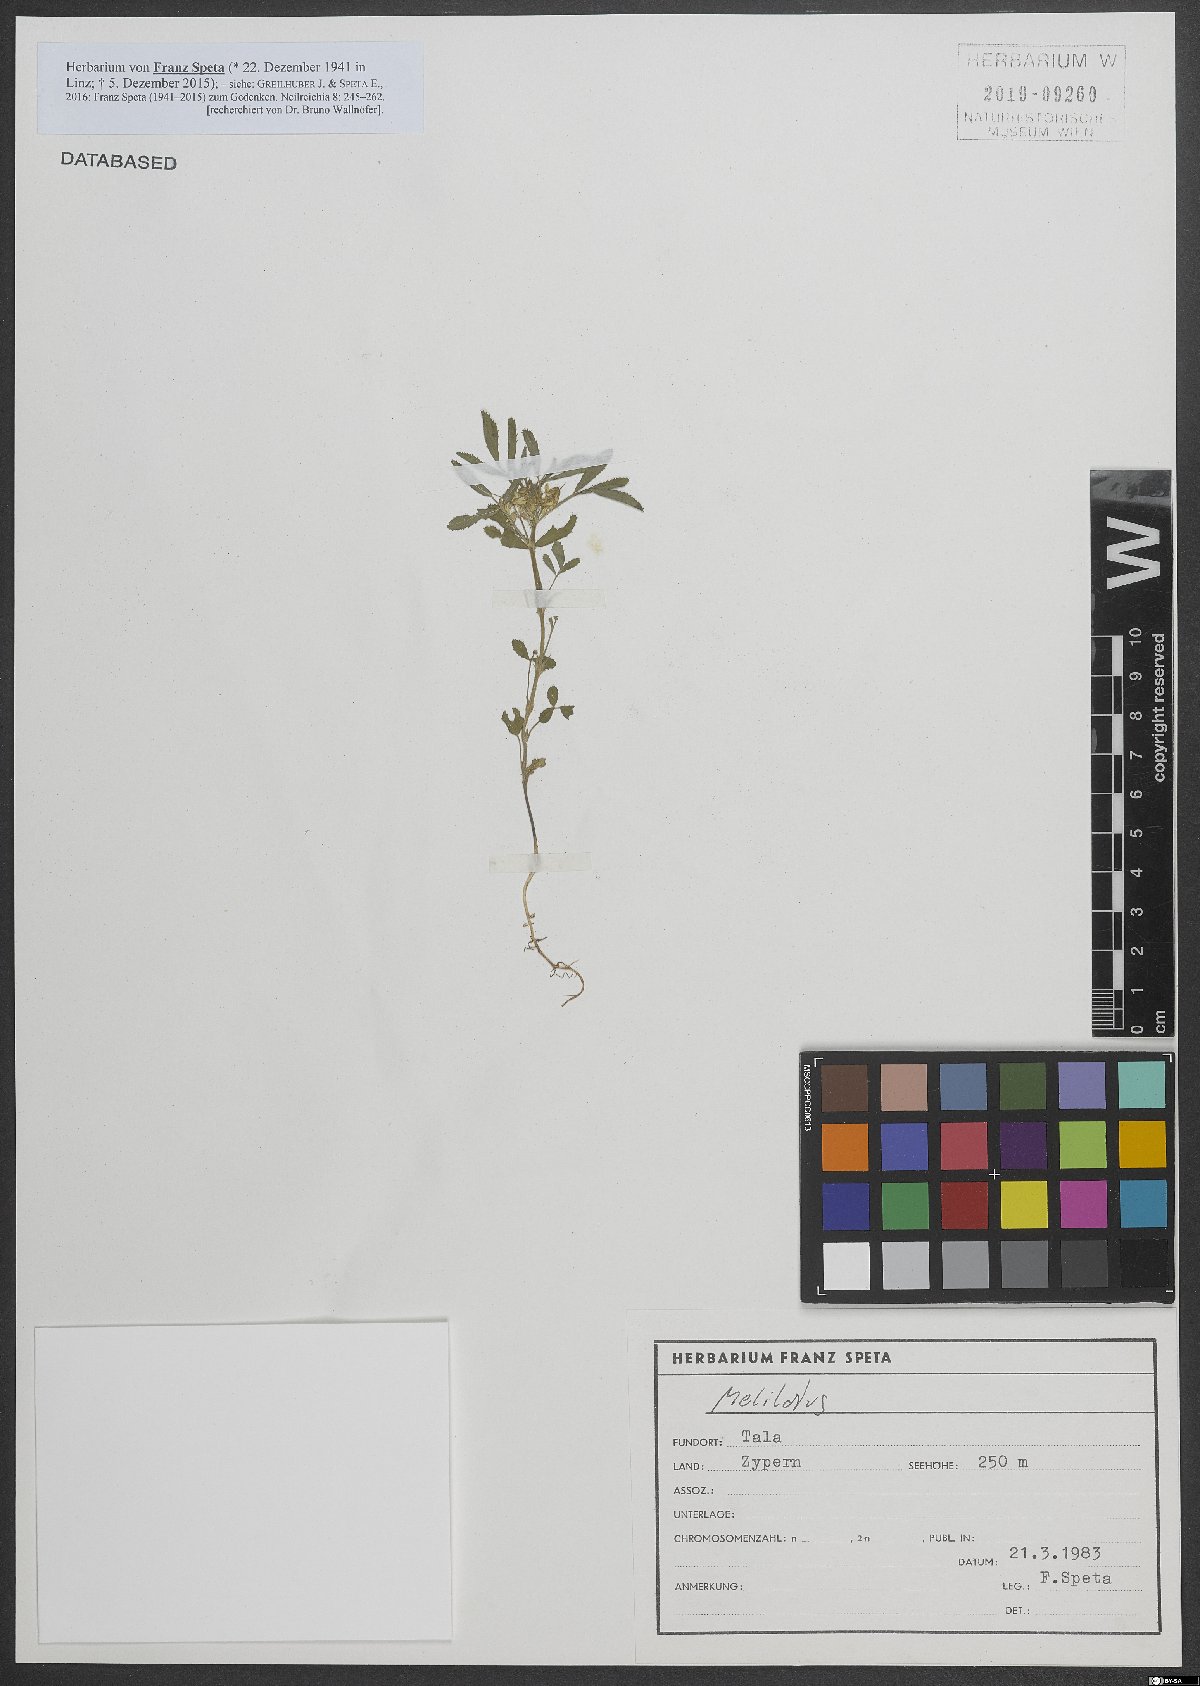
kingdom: Plantae
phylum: Tracheophyta
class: Magnoliopsida
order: Fabales
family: Fabaceae
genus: Melilotus
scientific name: Melilotus
